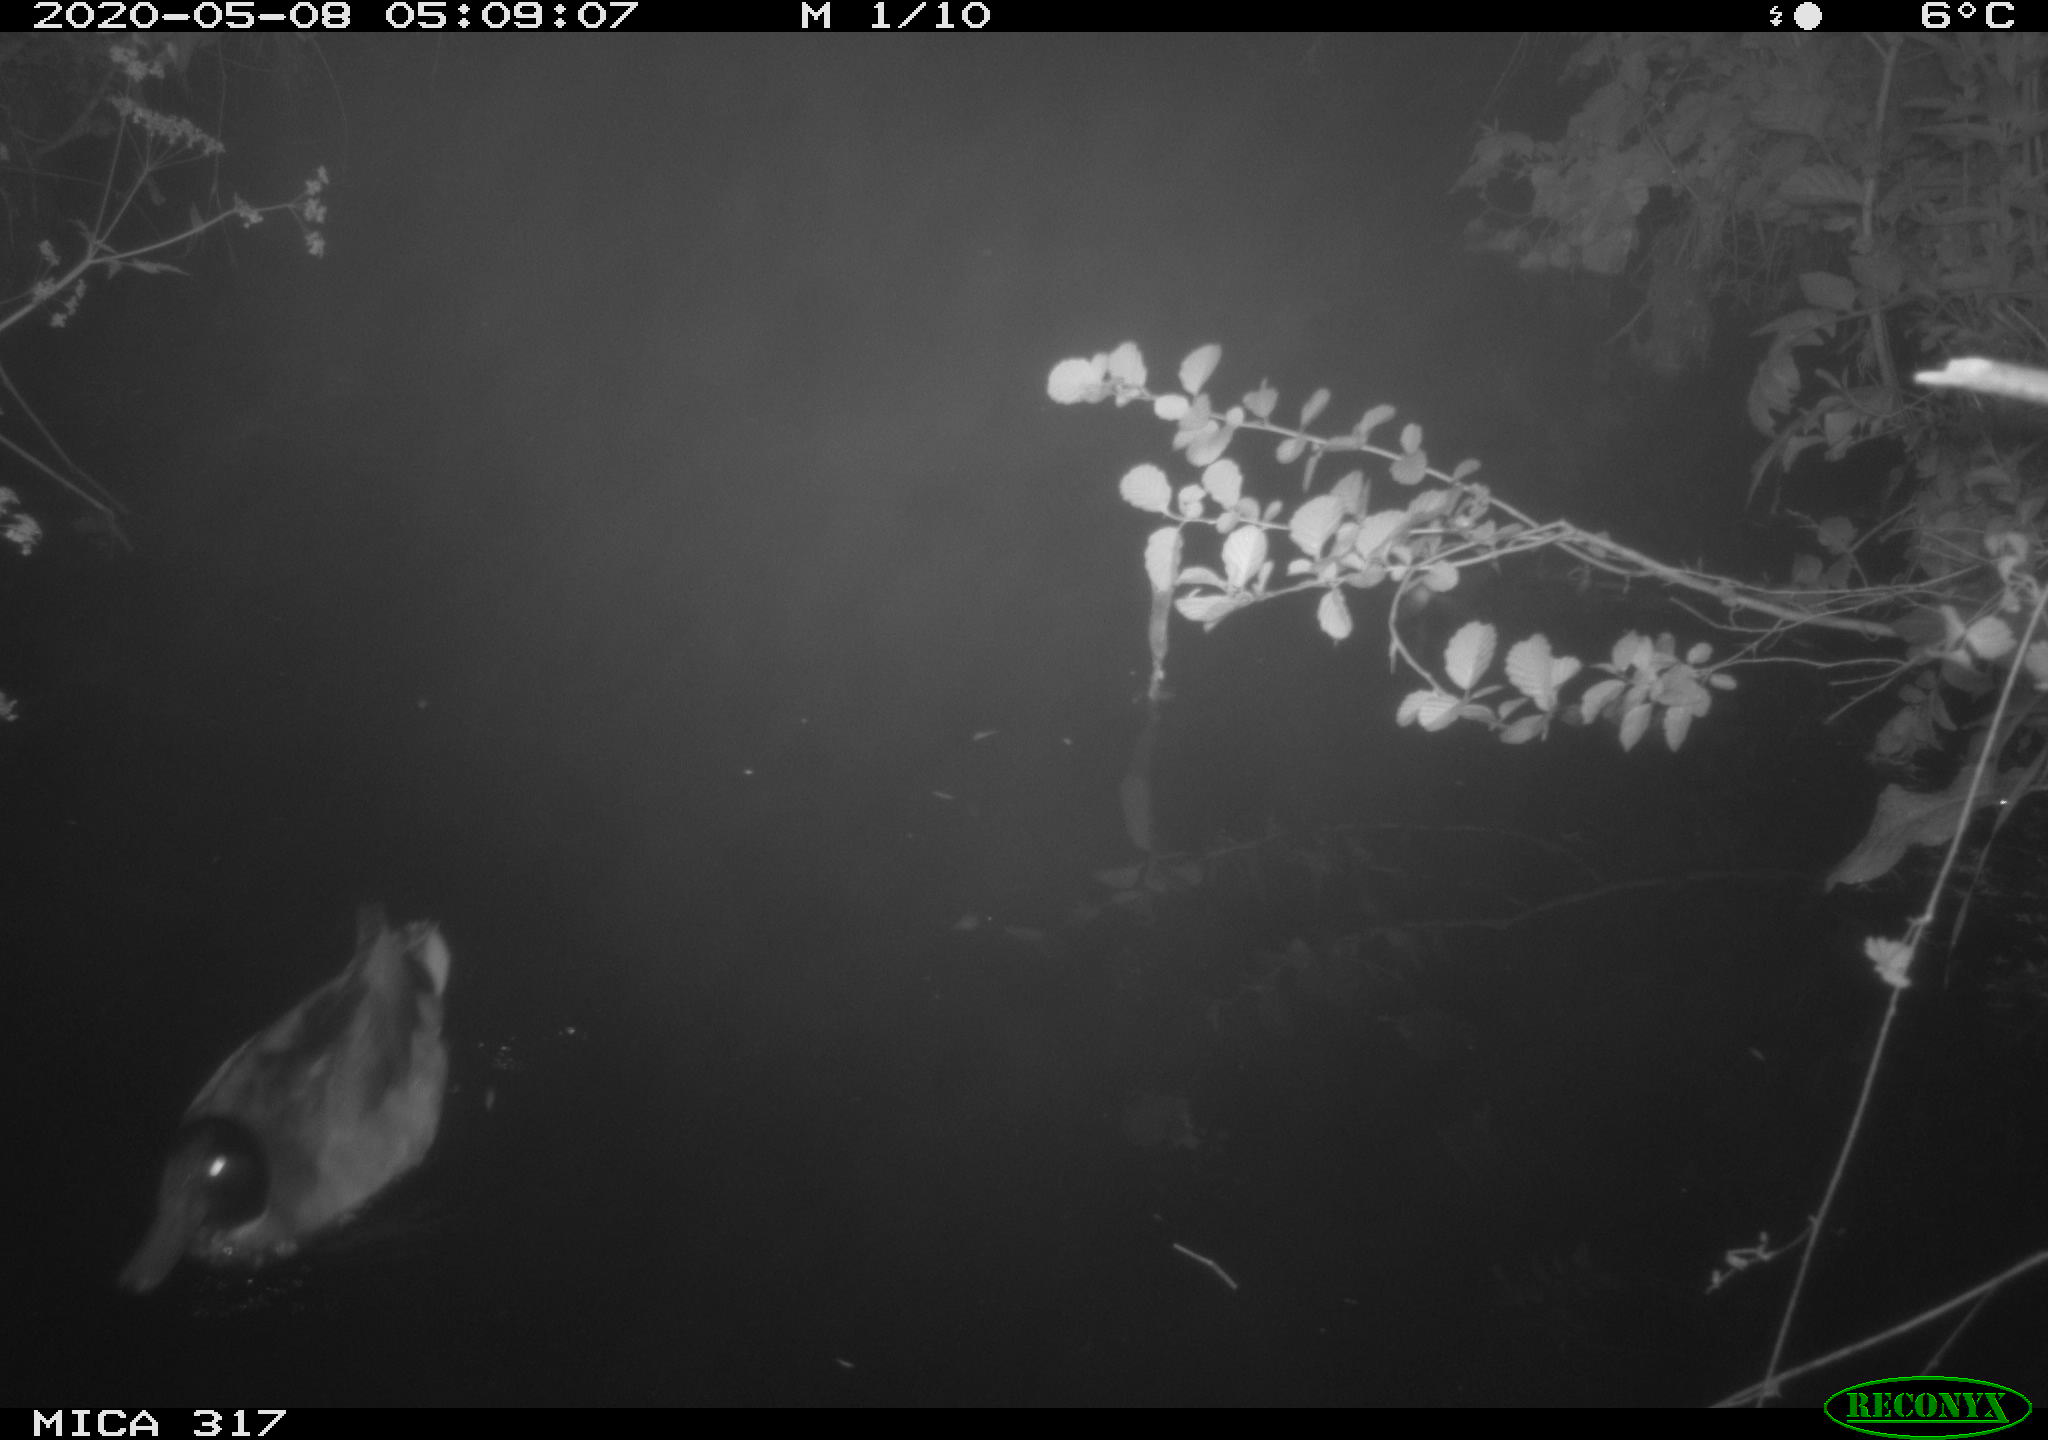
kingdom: Animalia
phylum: Chordata
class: Aves
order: Anseriformes
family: Anatidae
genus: Anas
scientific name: Anas platyrhynchos
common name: Mallard
